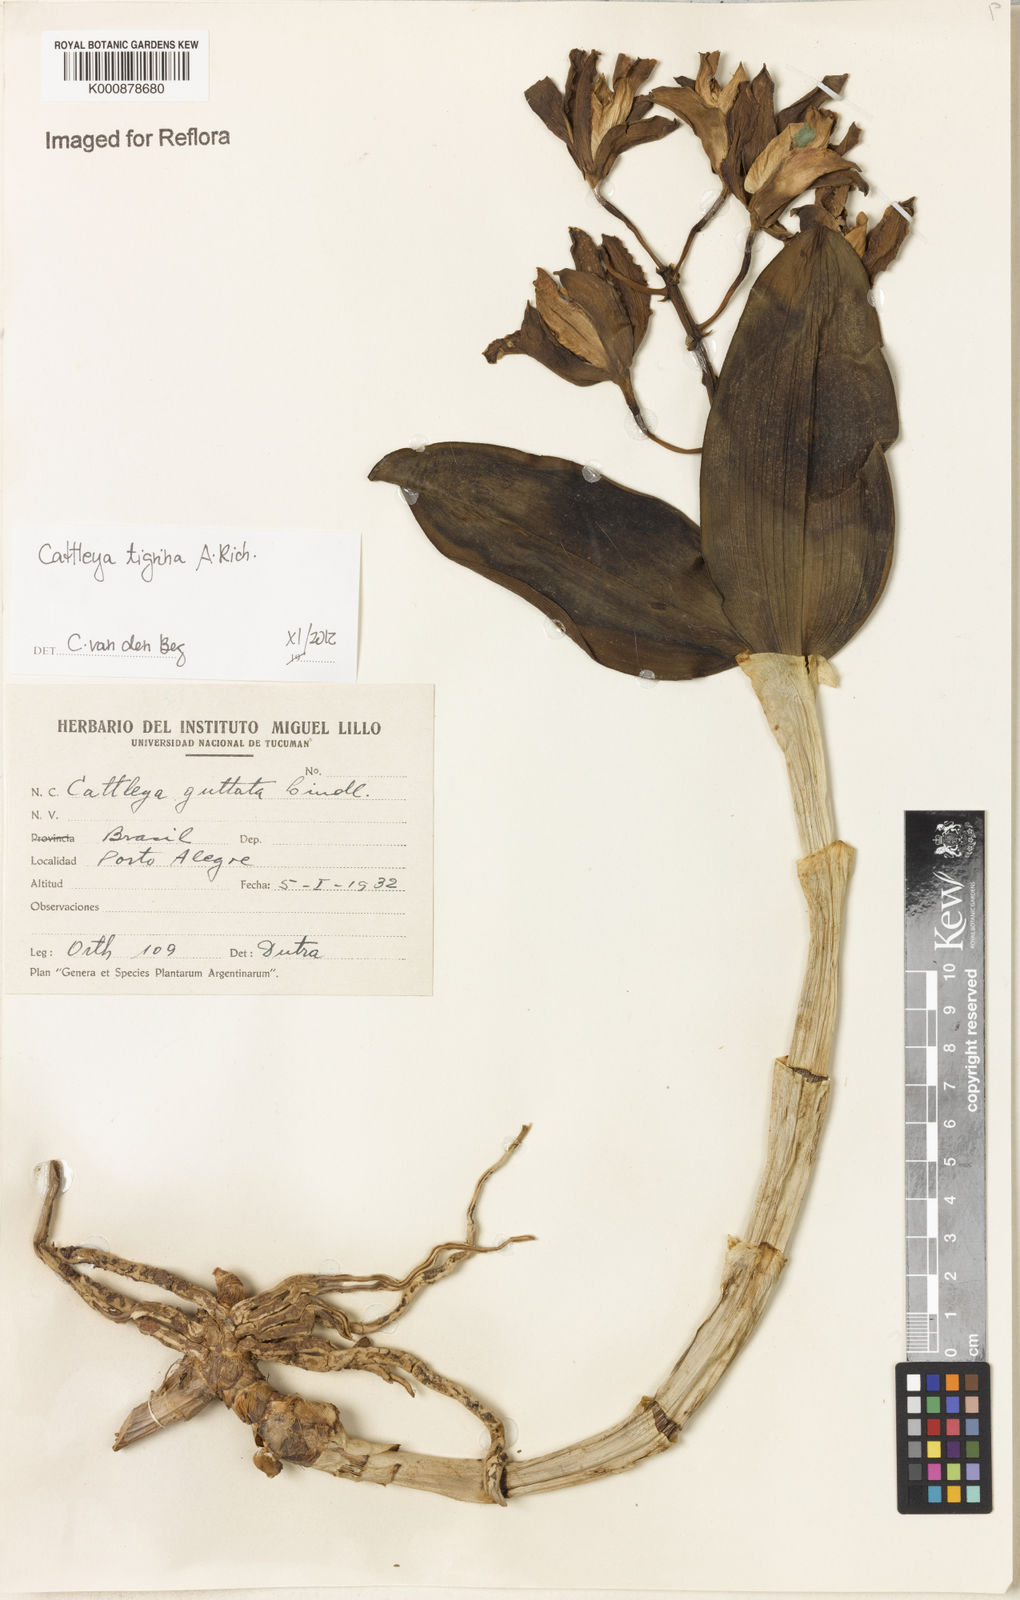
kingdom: Plantae
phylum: Tracheophyta
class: Liliopsida
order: Asparagales
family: Orchidaceae
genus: Cattleya
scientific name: Cattleya tigrina
